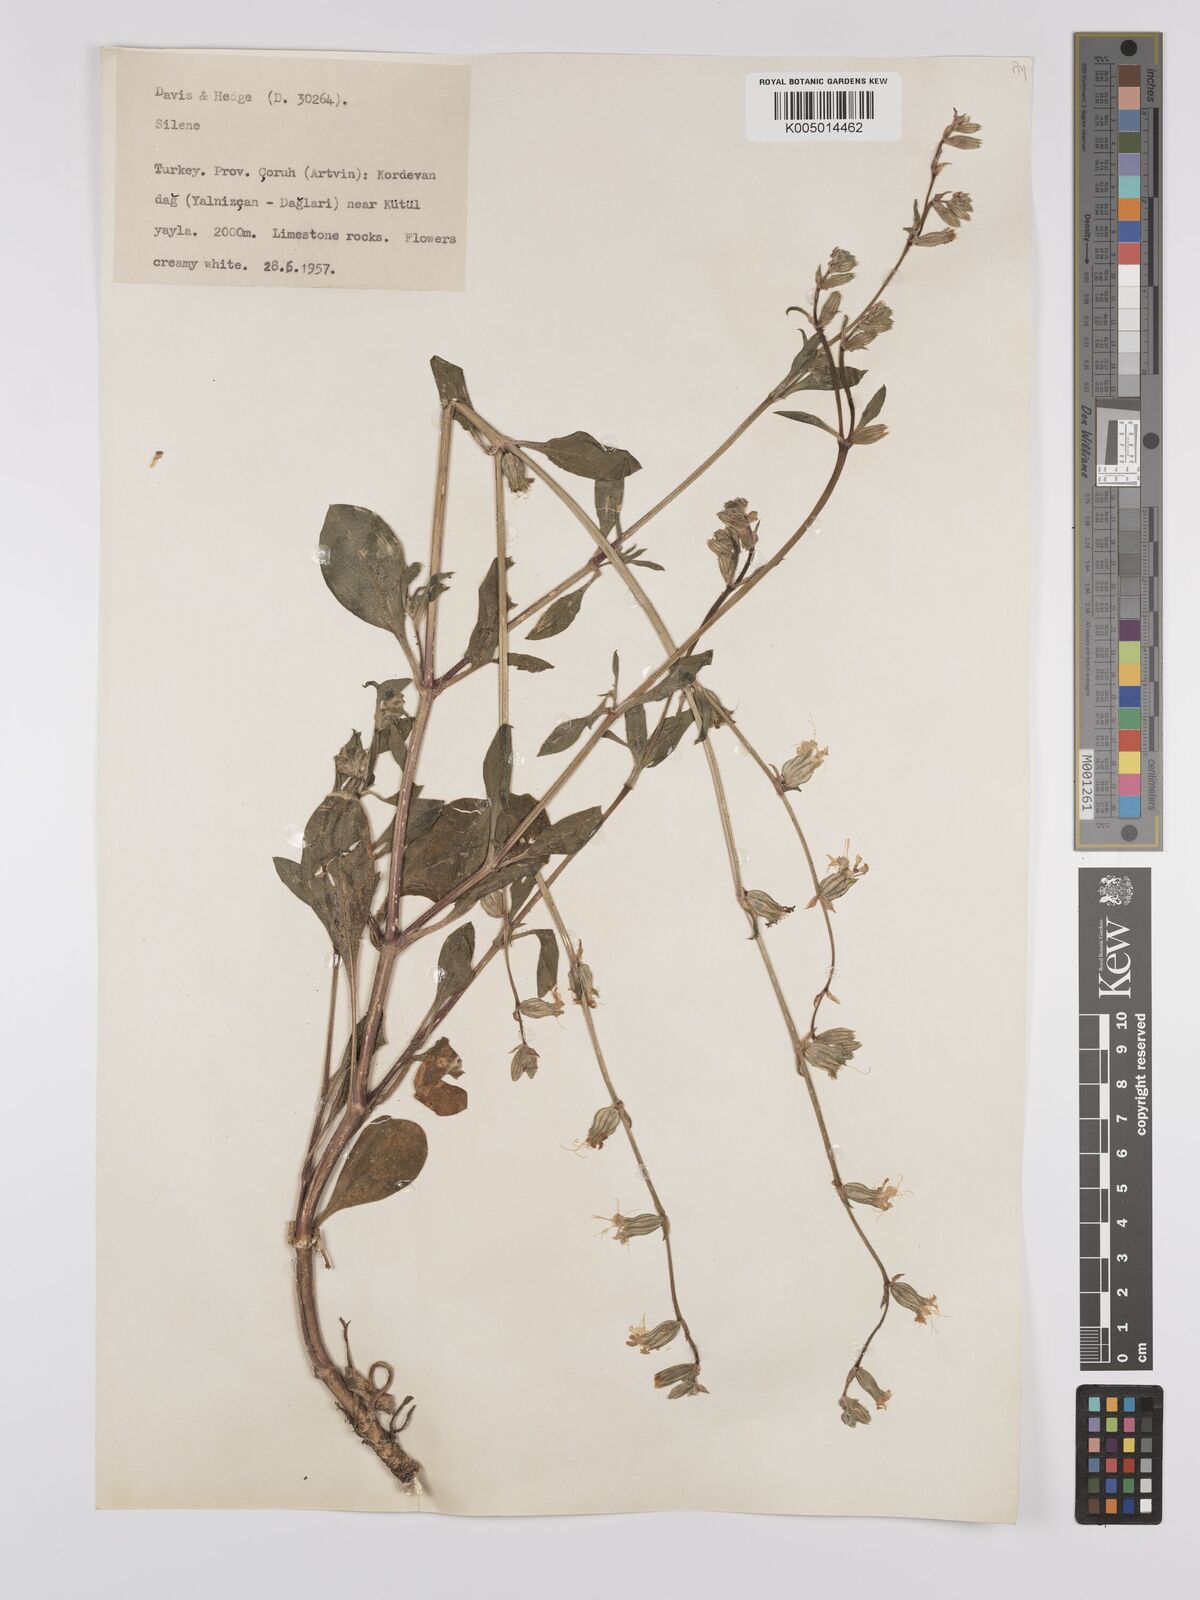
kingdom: Plantae
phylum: Tracheophyta
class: Magnoliopsida
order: Caryophyllales
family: Caryophyllaceae
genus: Silene
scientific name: Silene
